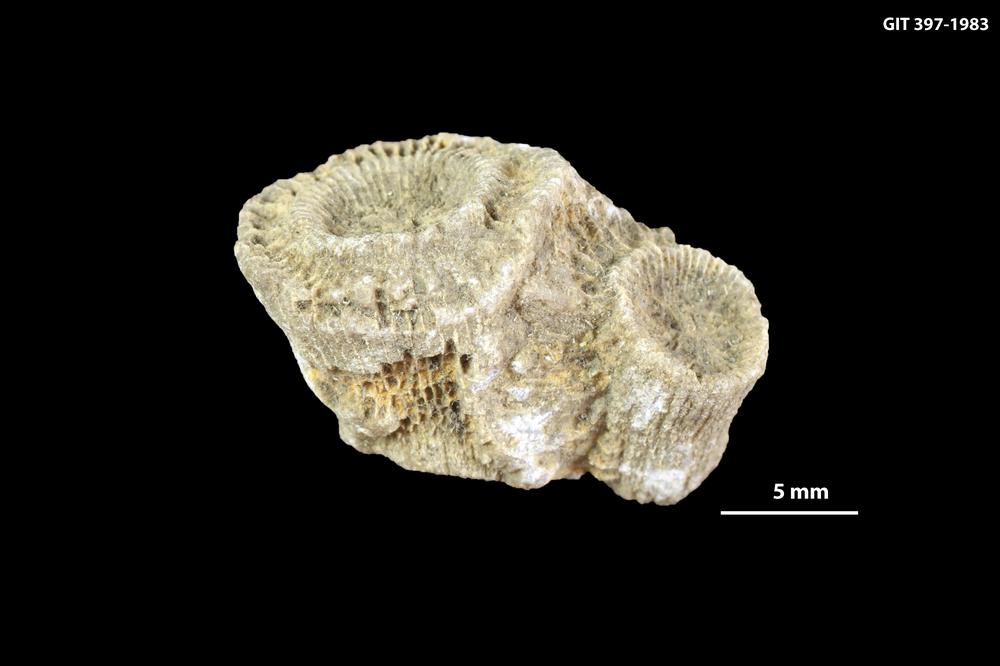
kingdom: Animalia
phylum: Cnidaria
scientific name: Cnidaria
